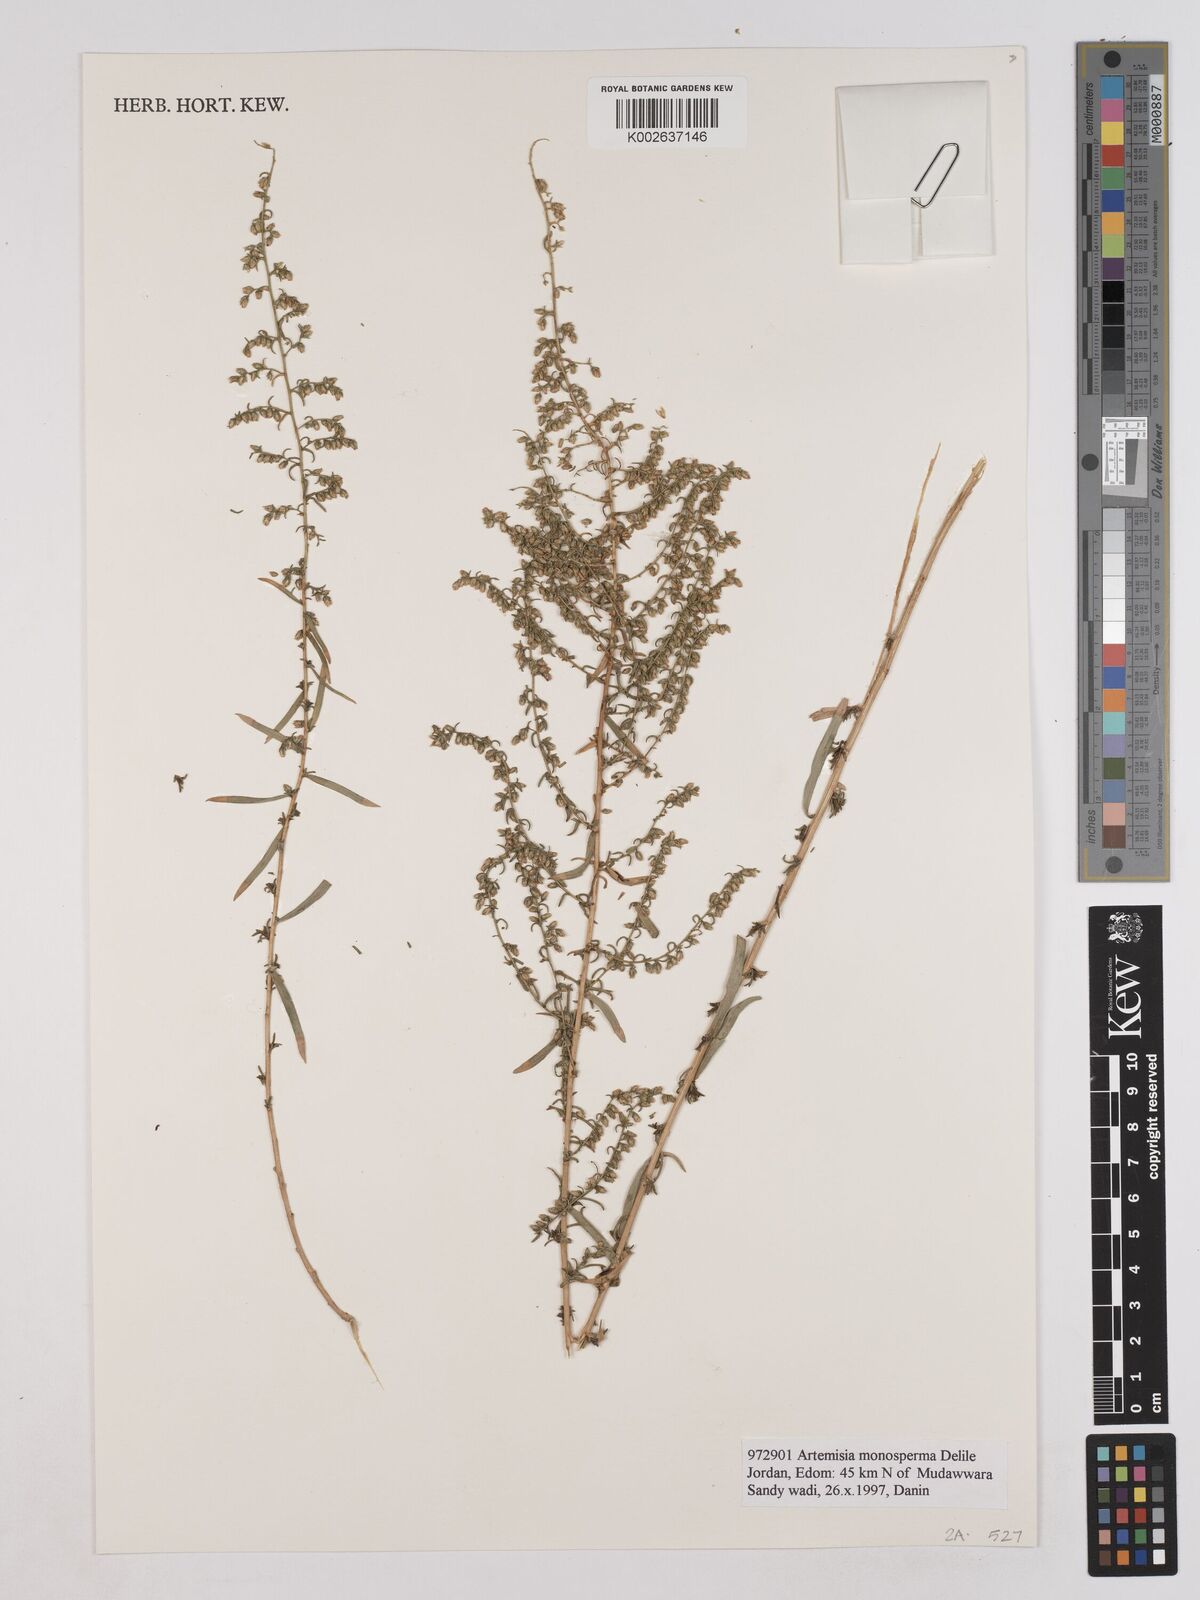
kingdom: Plantae
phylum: Tracheophyta
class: Magnoliopsida
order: Asterales
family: Asteraceae
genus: Artemisia
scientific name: Artemisia monosperma
